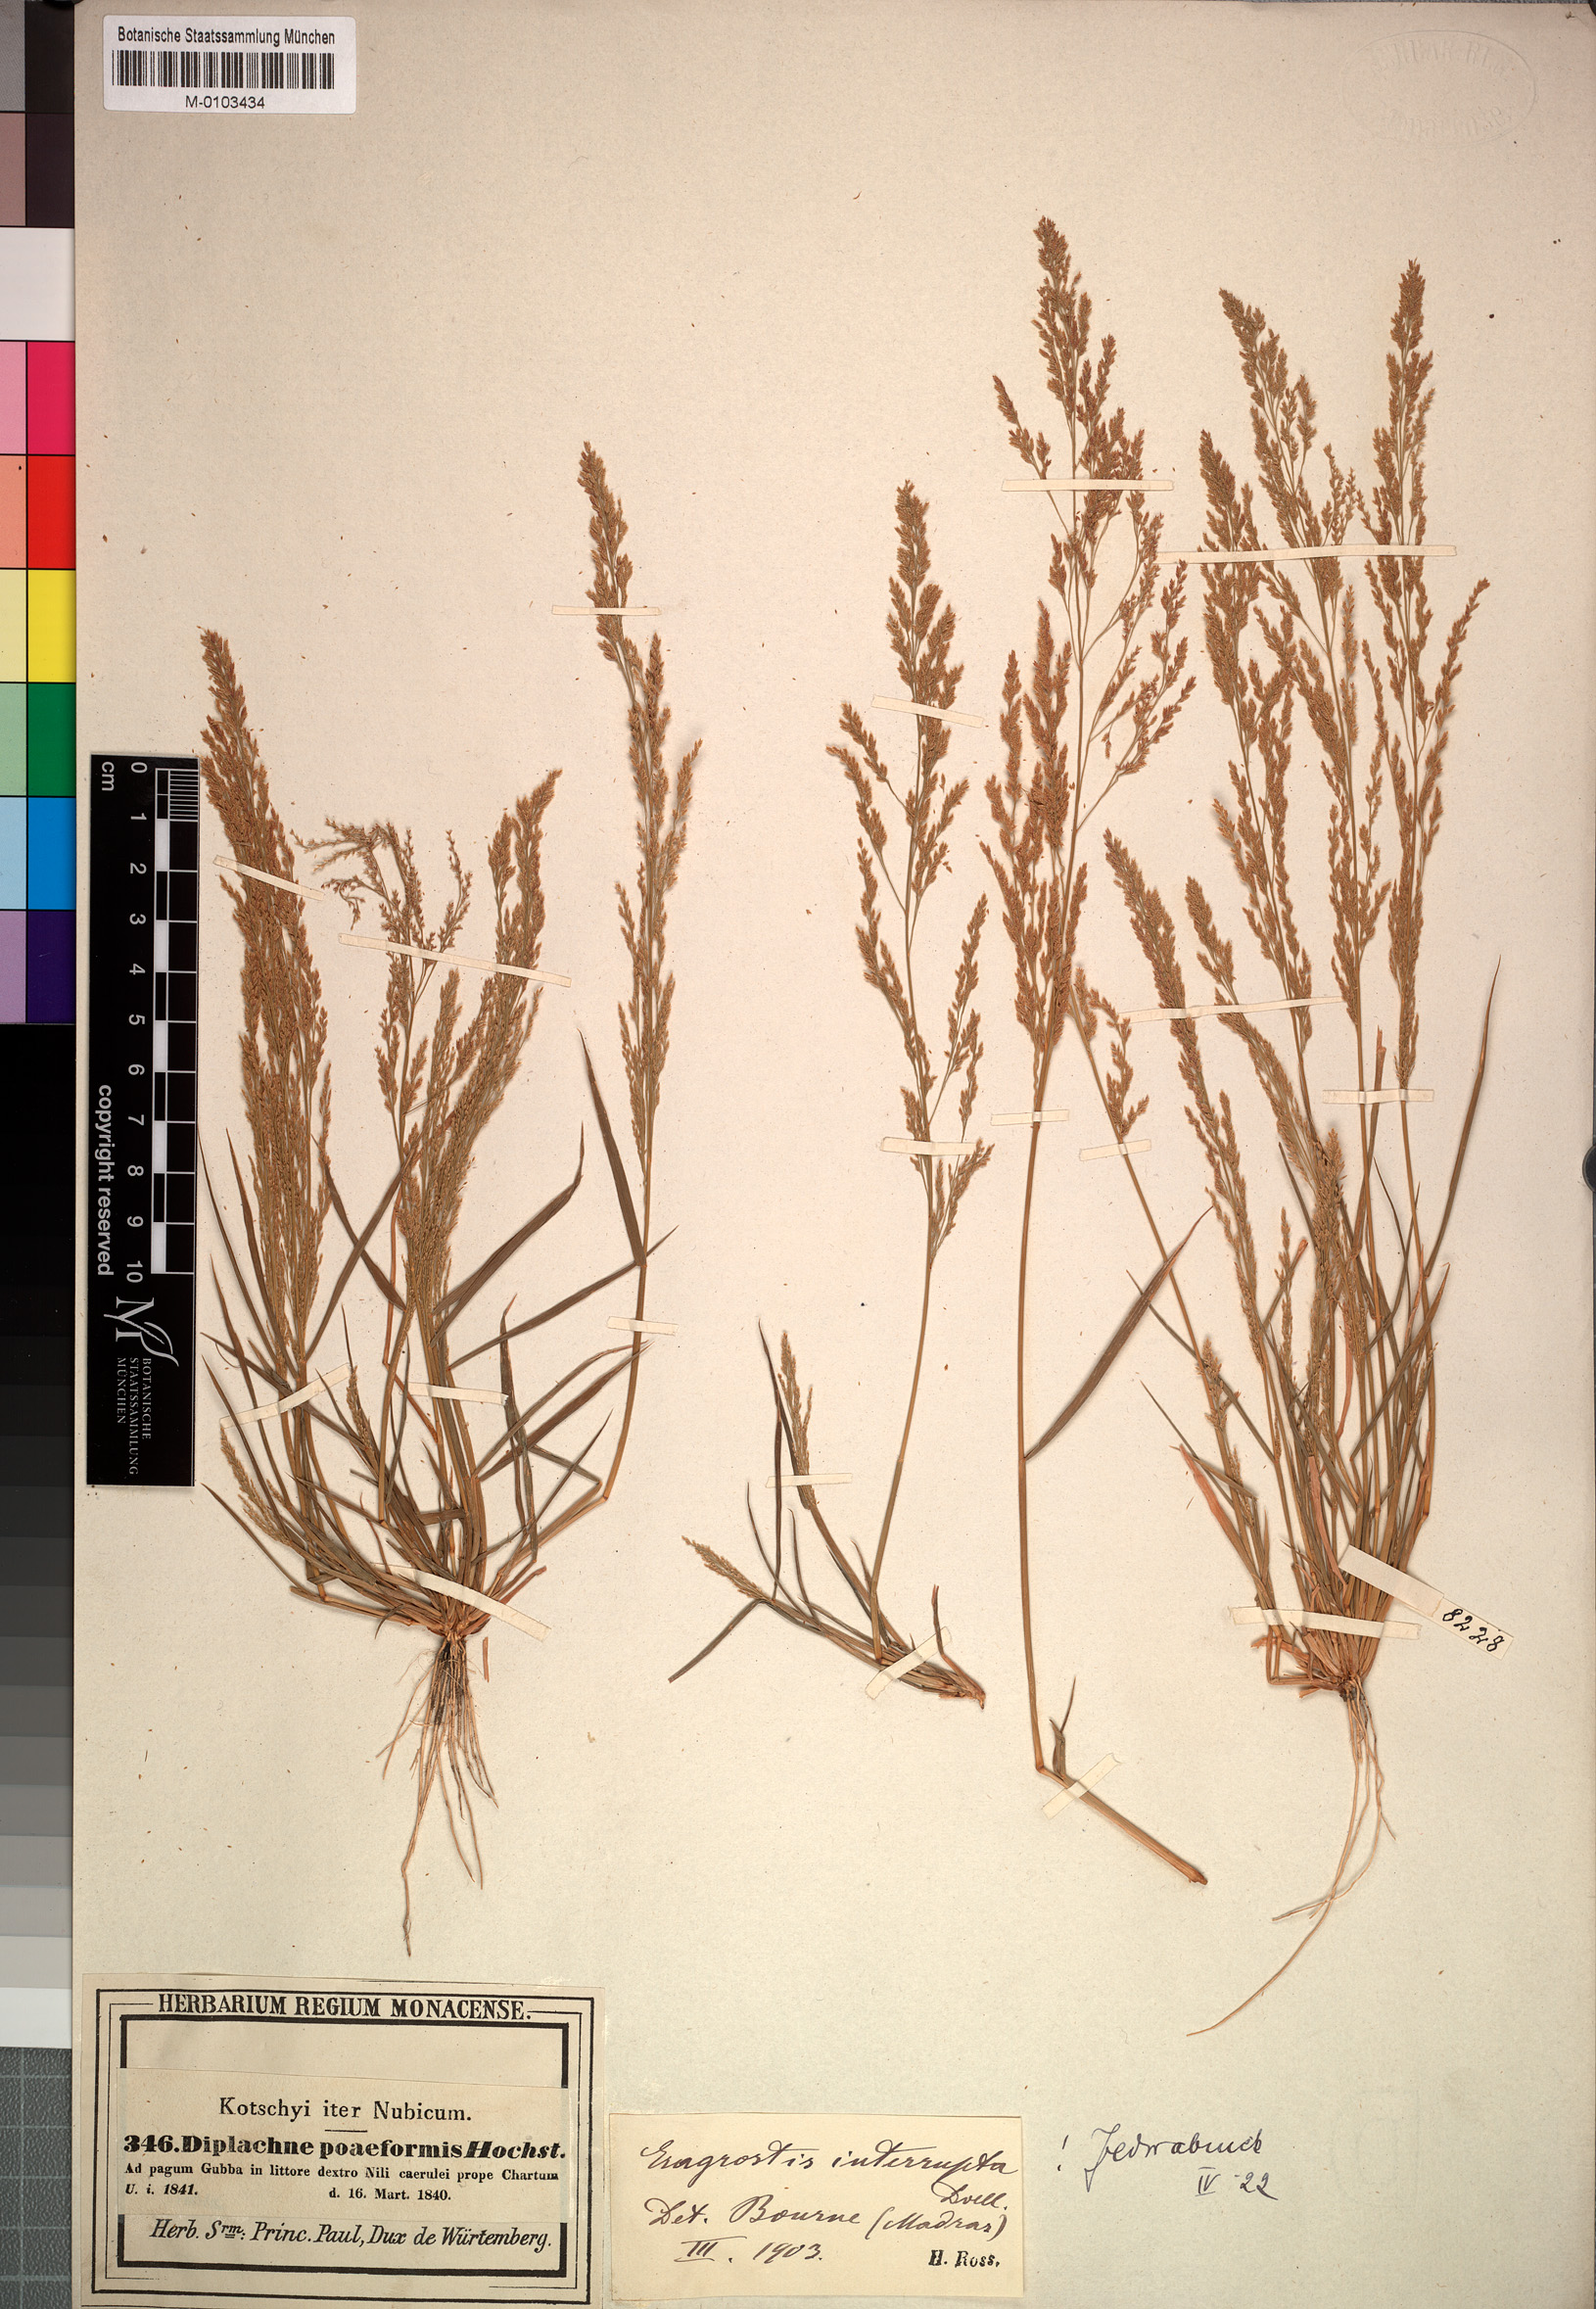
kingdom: Plantae
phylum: Tracheophyta
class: Liliopsida
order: Poales
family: Poaceae
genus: Eragrostis
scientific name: Eragrostis japonica
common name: Pond lovegrass
